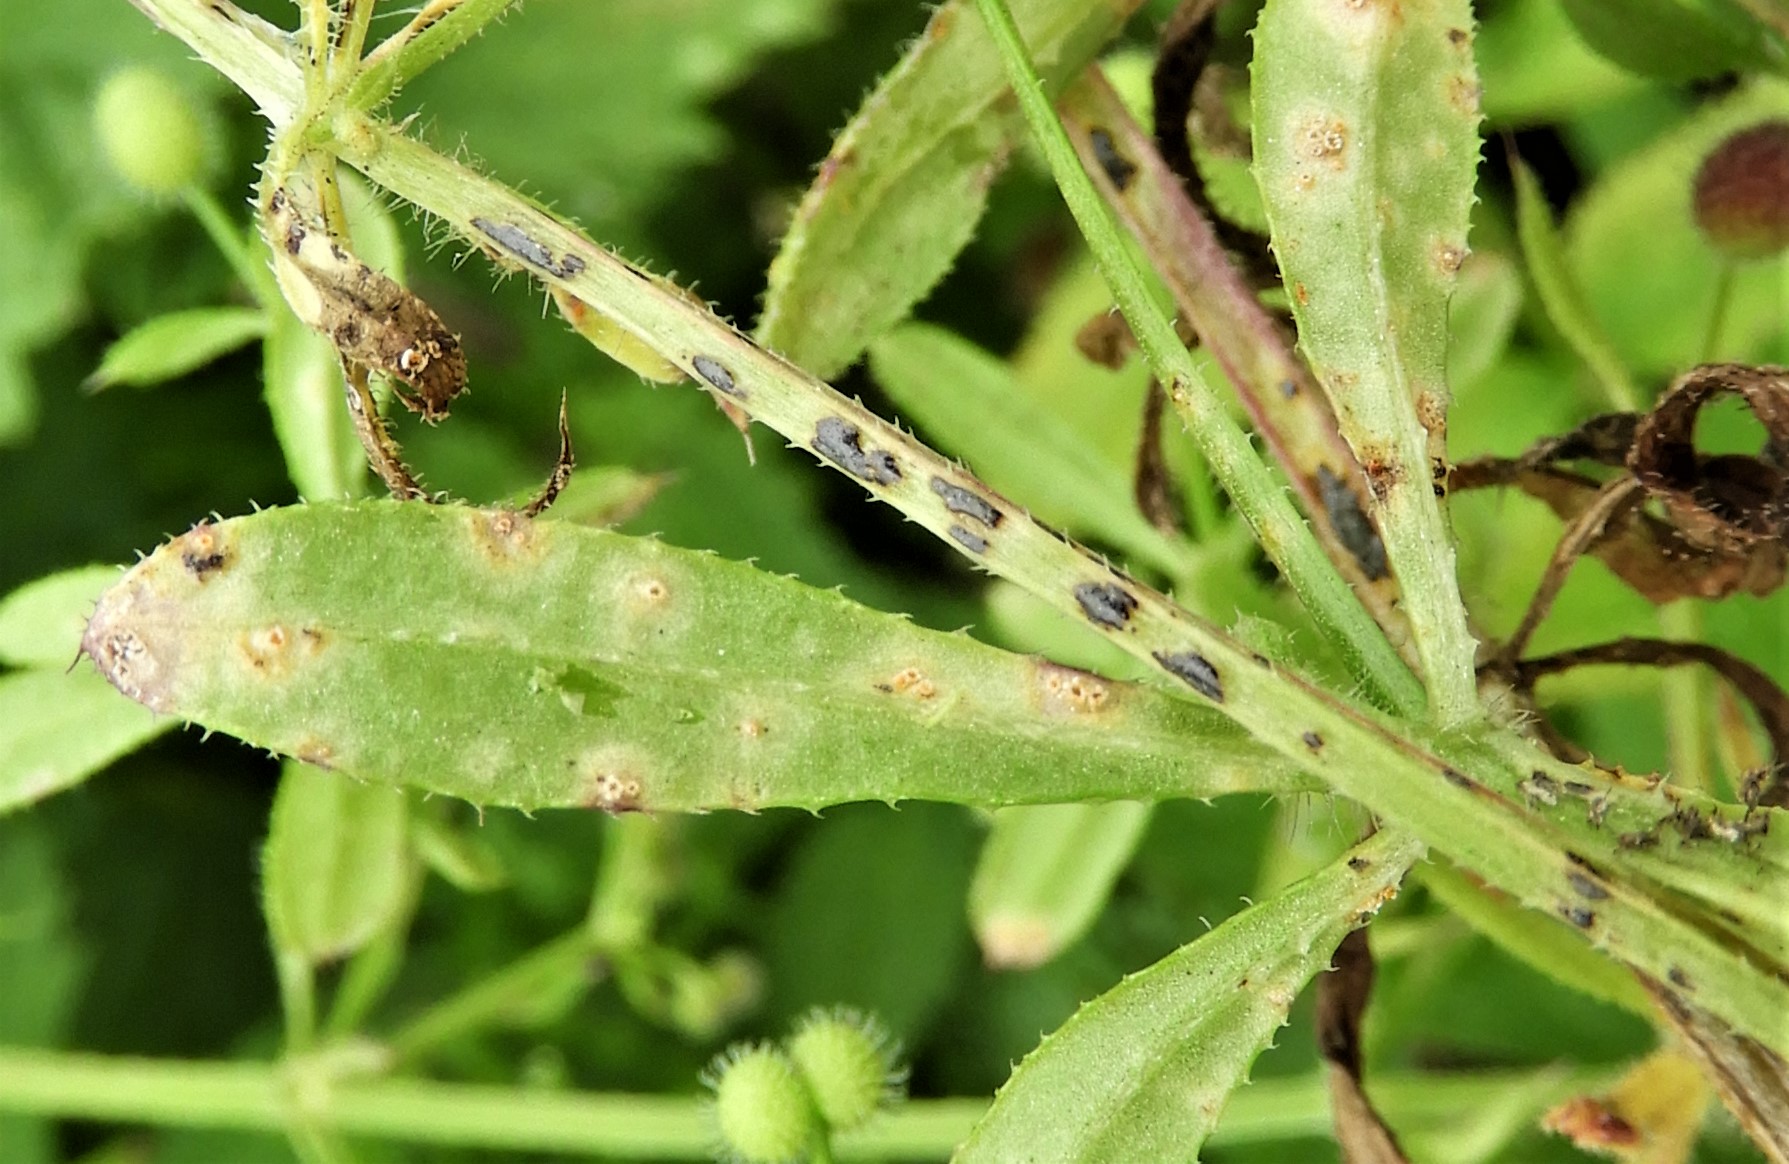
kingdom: Fungi
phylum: Basidiomycota
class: Pucciniomycetes
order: Pucciniales
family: Pucciniaceae
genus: Puccinia
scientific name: Puccinia difformis
